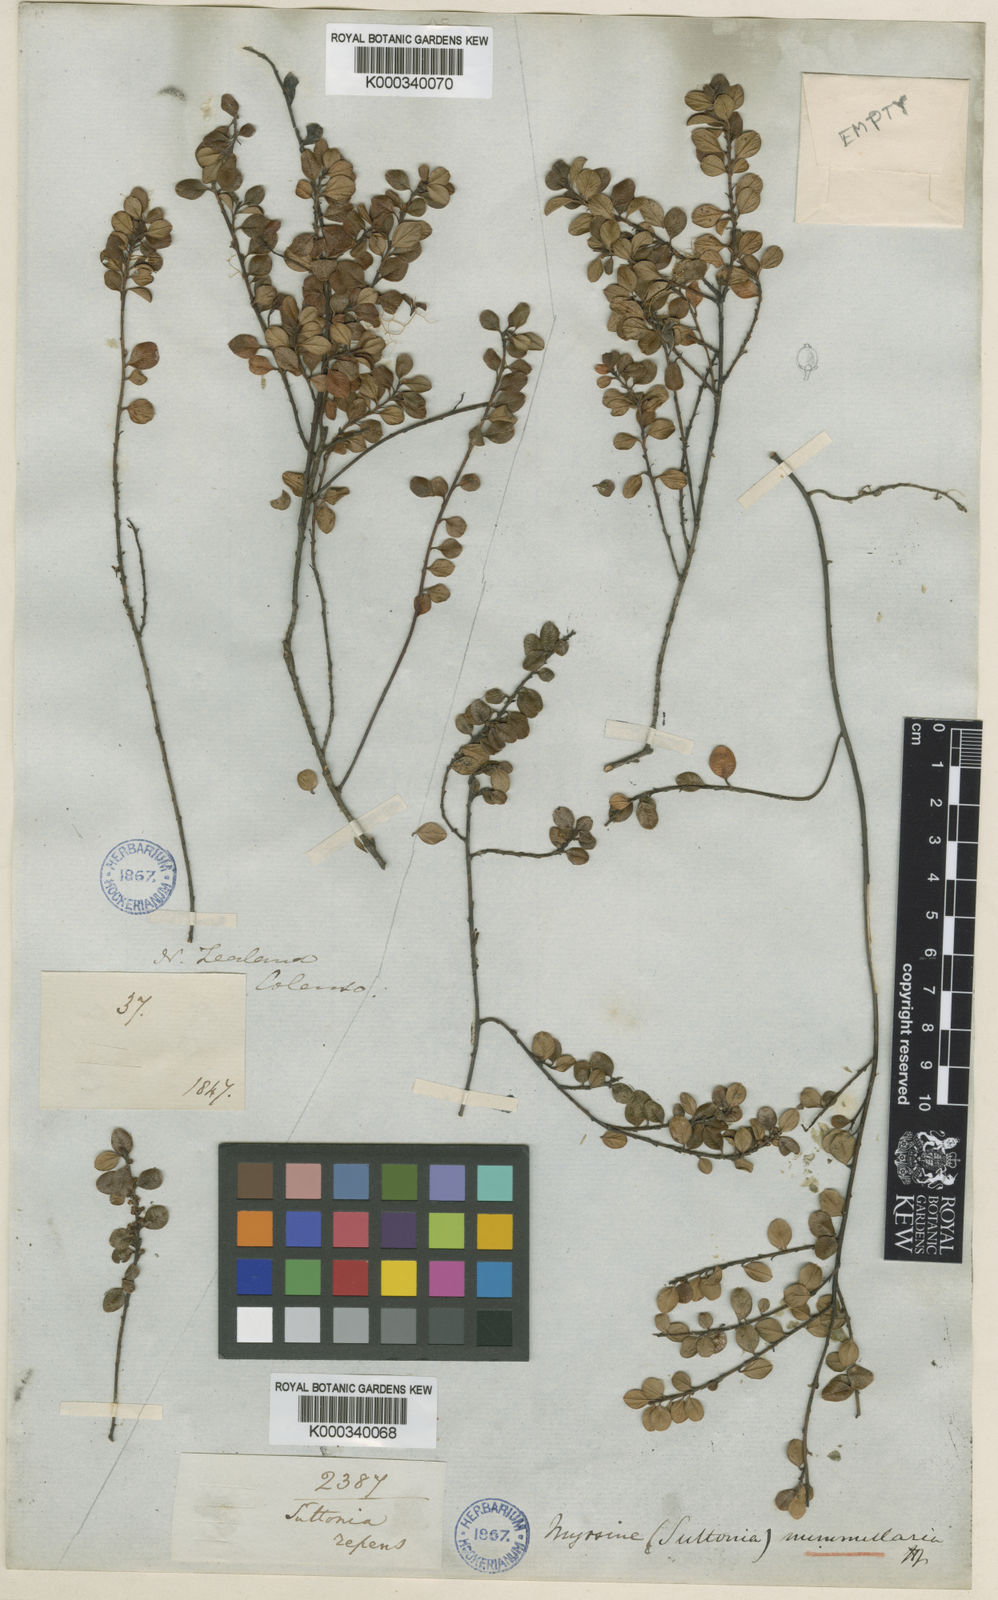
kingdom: Plantae
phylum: Tracheophyta
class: Magnoliopsida
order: Ericales
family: Primulaceae
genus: Myrsine
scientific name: Myrsine nummularia
